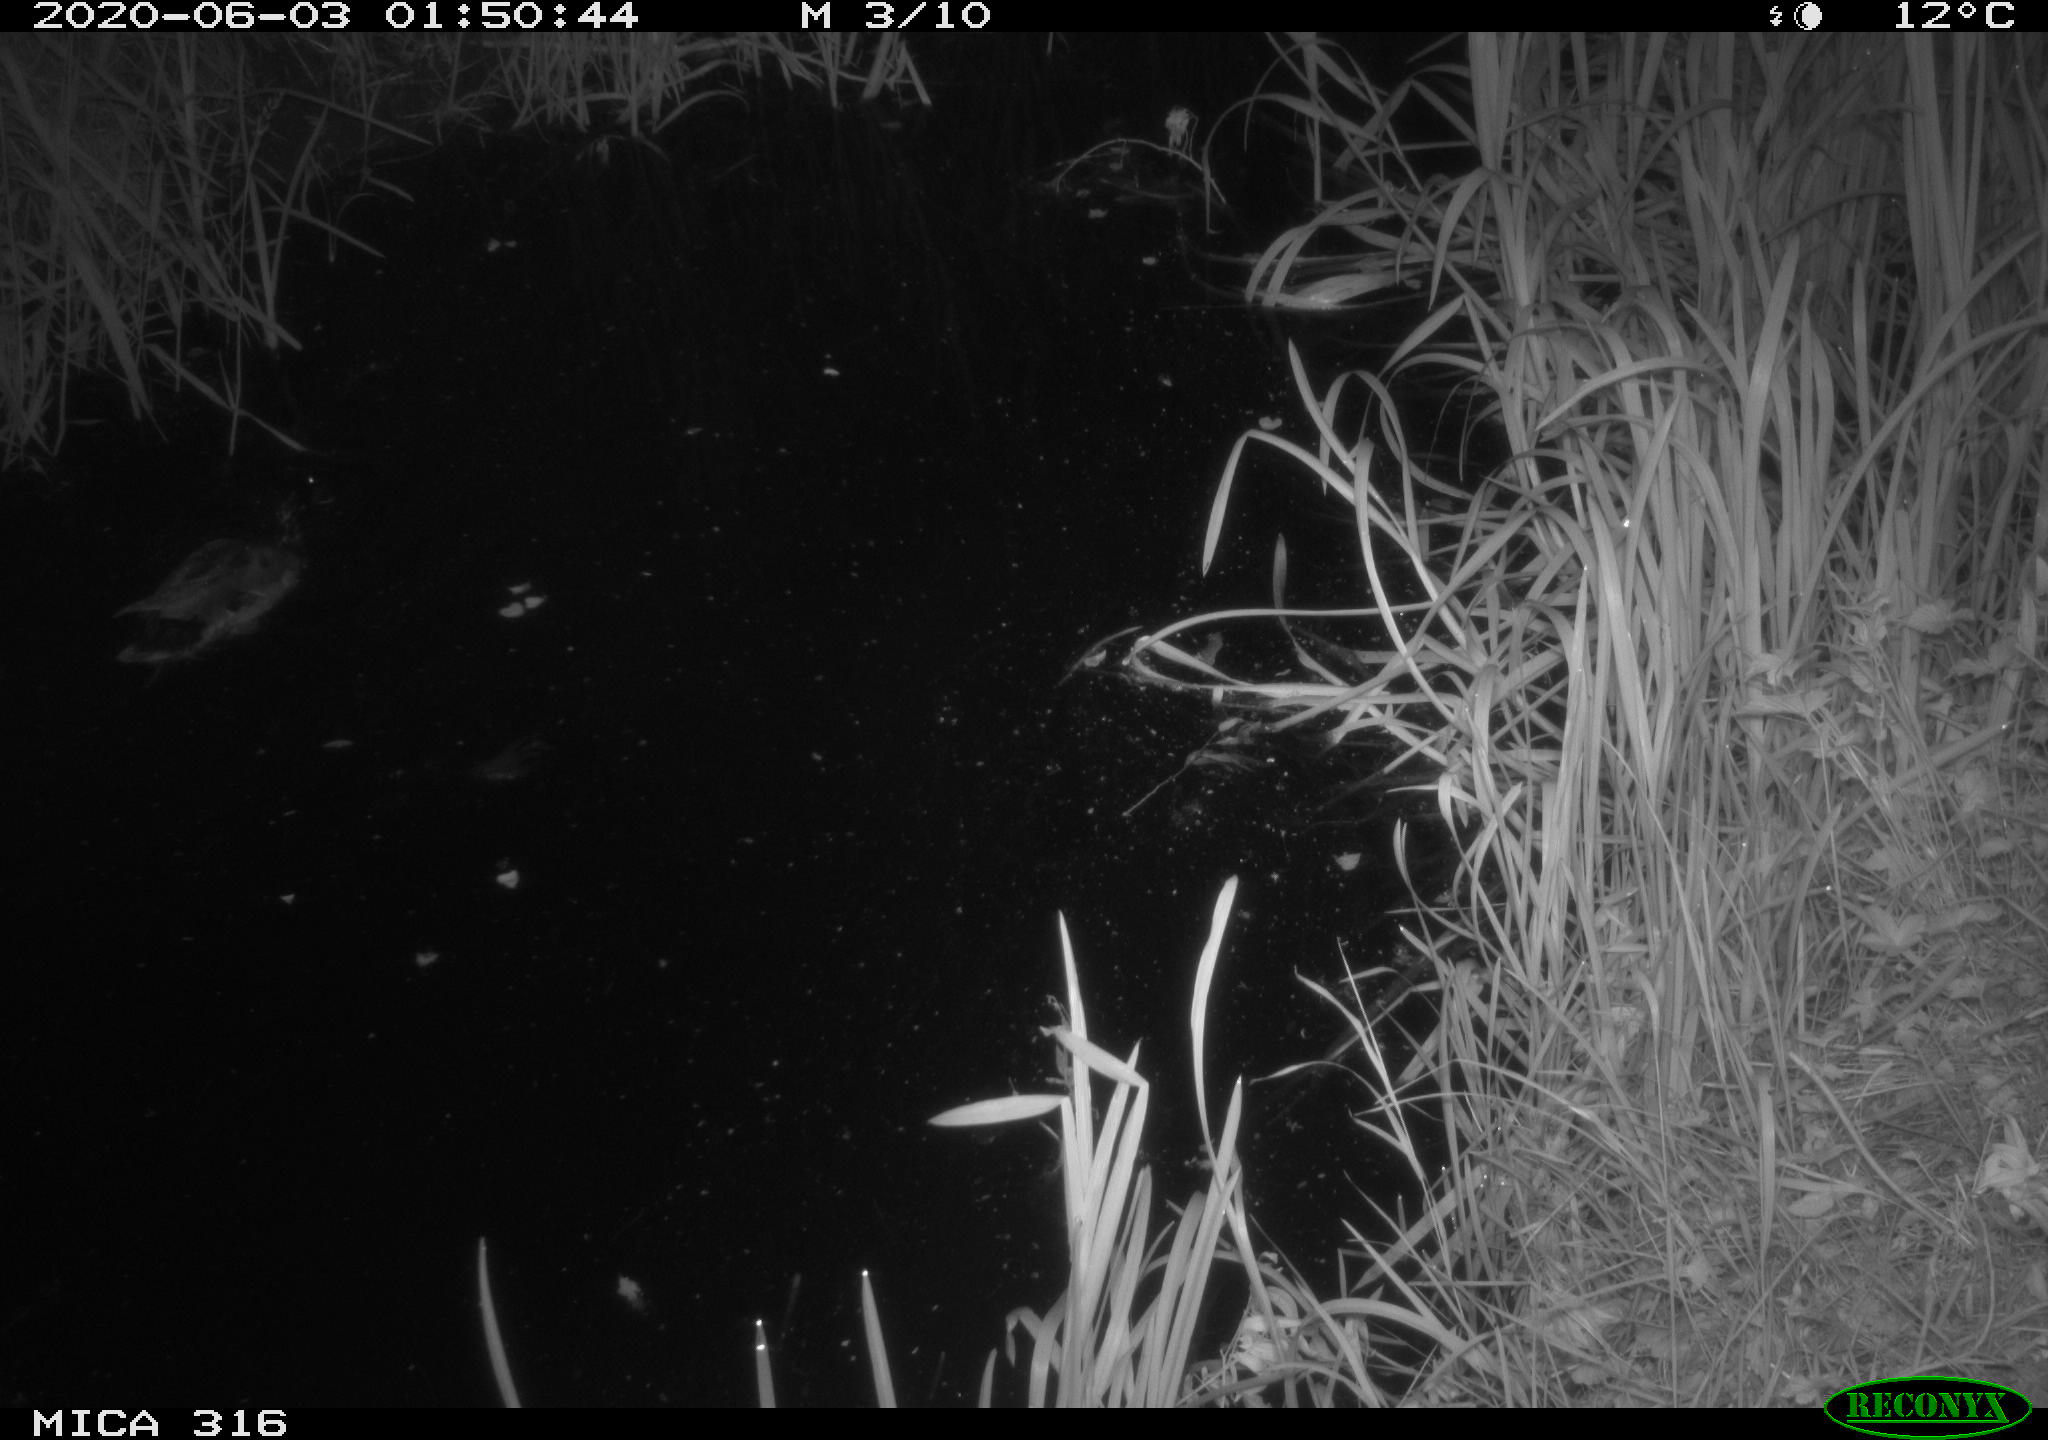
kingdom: Animalia
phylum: Chordata
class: Aves
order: Anseriformes
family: Anatidae
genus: Anas
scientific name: Anas platyrhynchos
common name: Mallard
